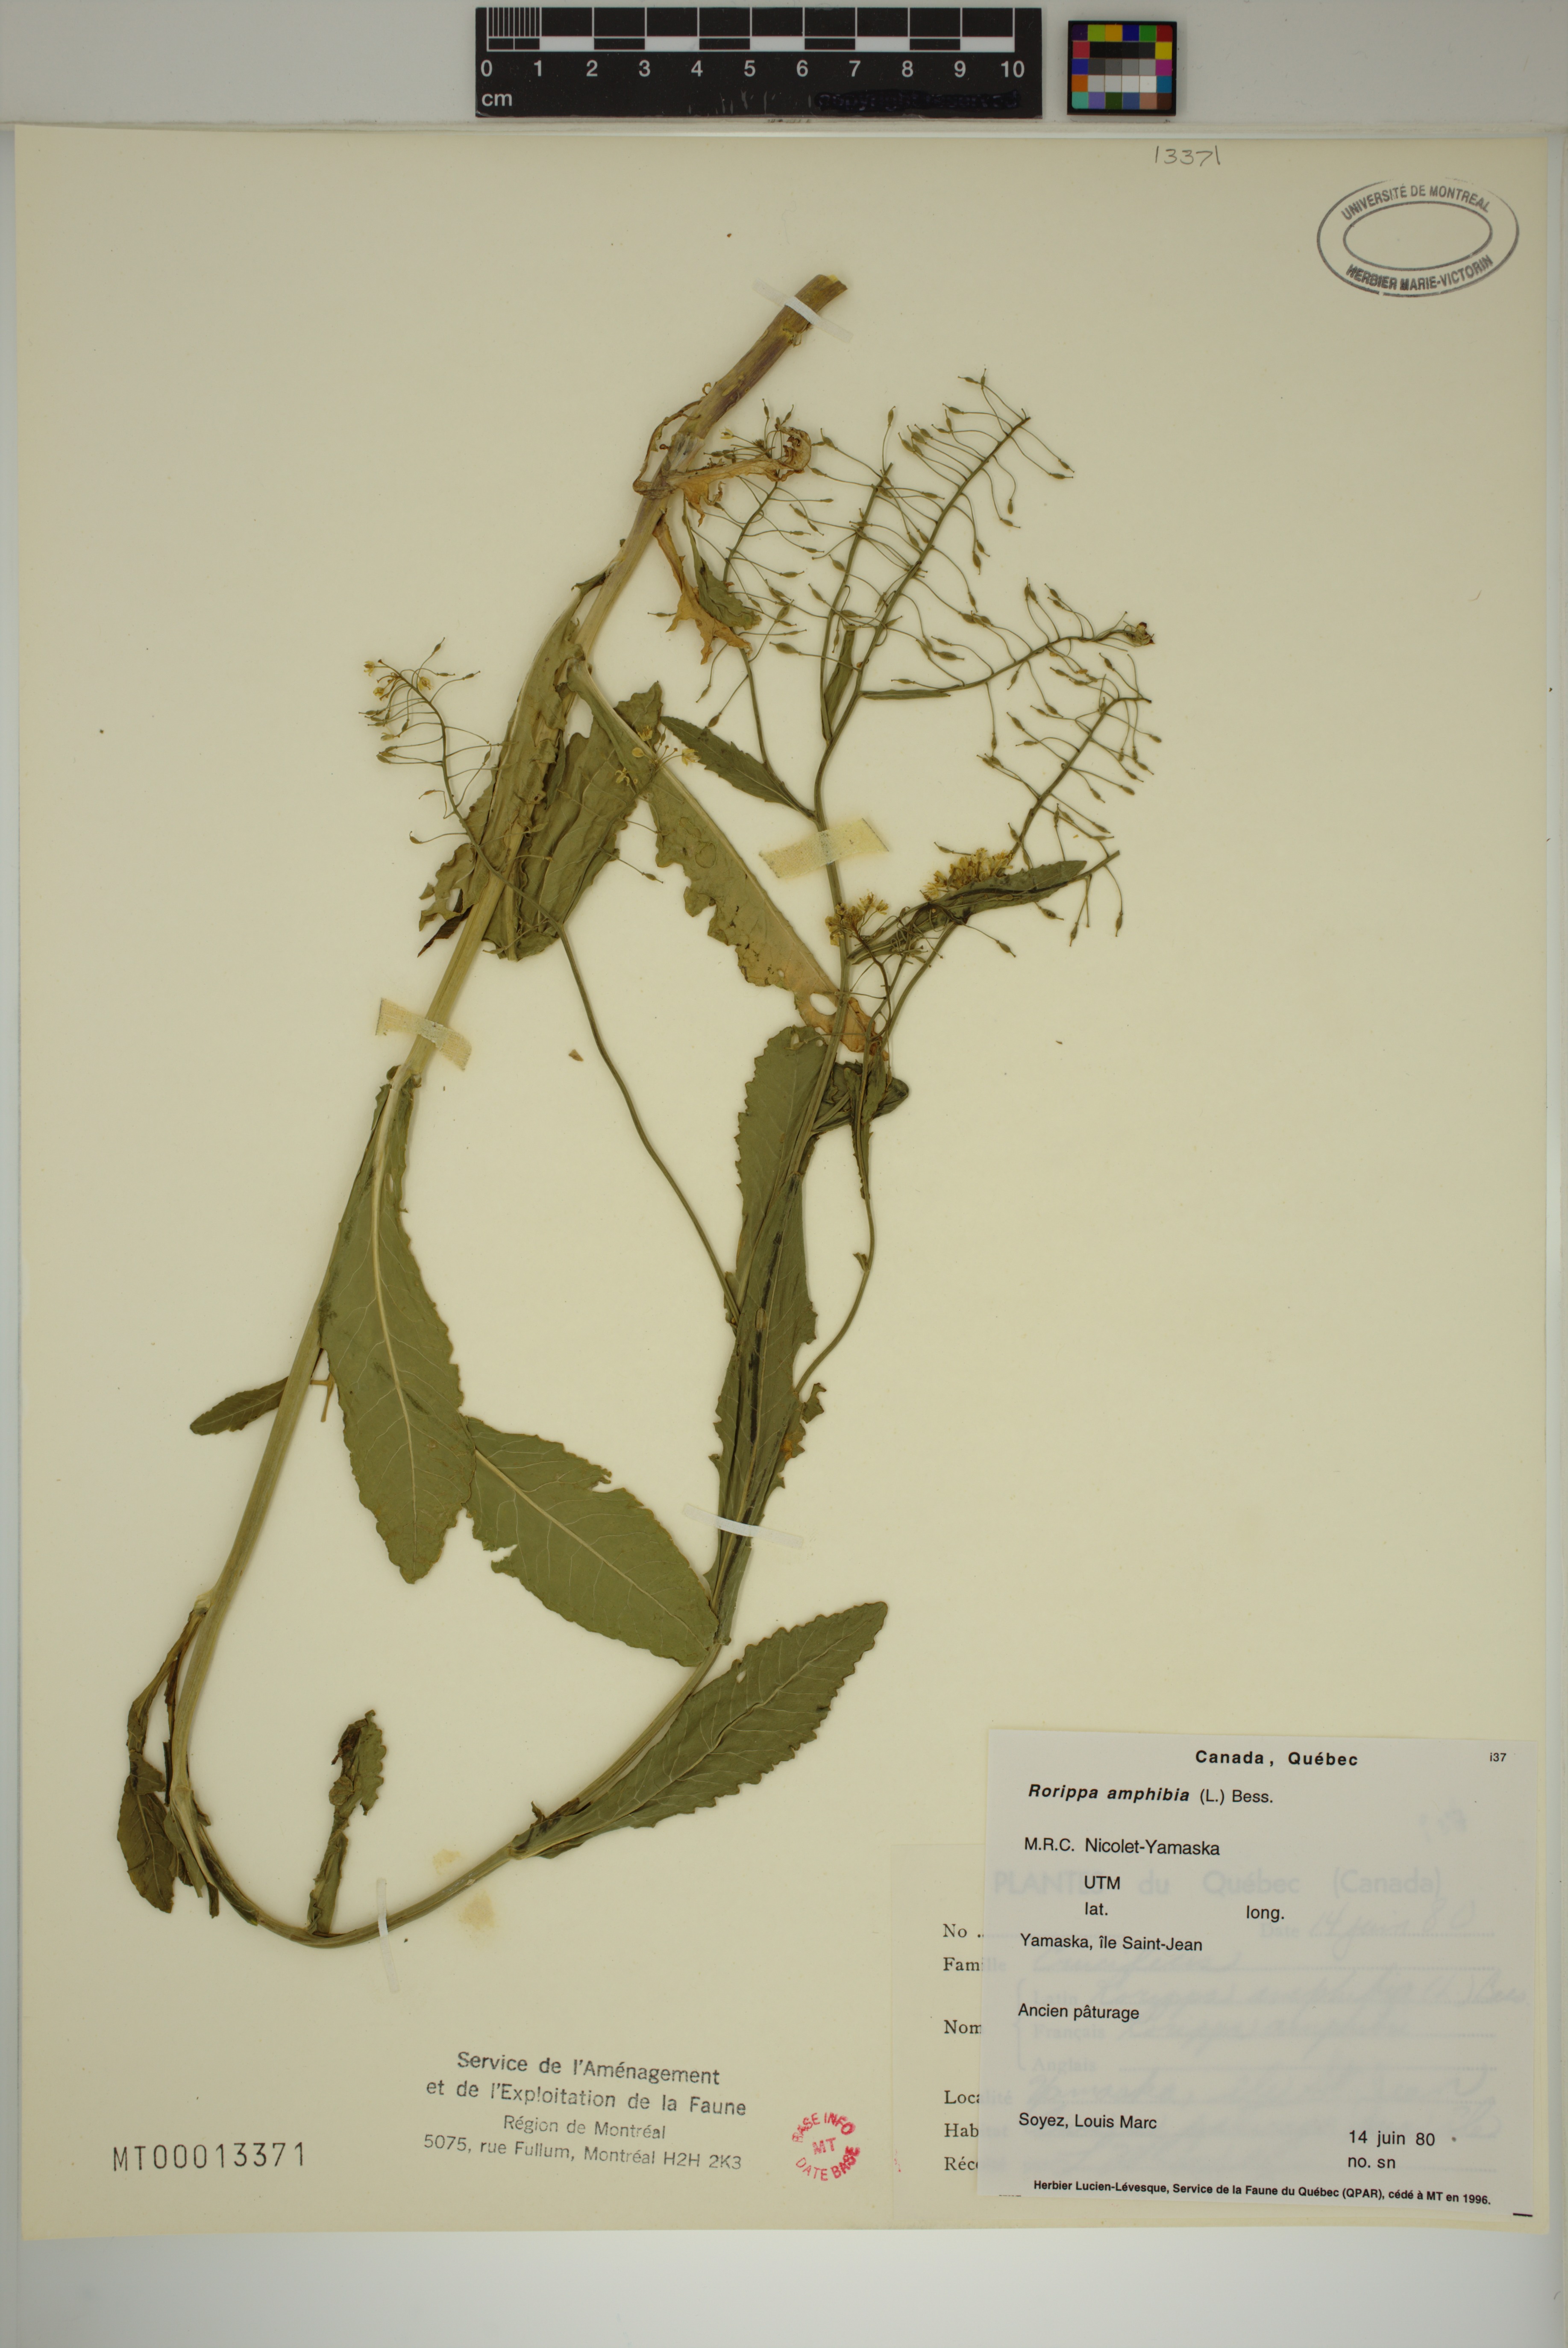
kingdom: Plantae
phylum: Tracheophyta
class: Magnoliopsida
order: Brassicales
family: Brassicaceae
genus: Rorippa
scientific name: Rorippa amphibia
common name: Great yellow-cress
